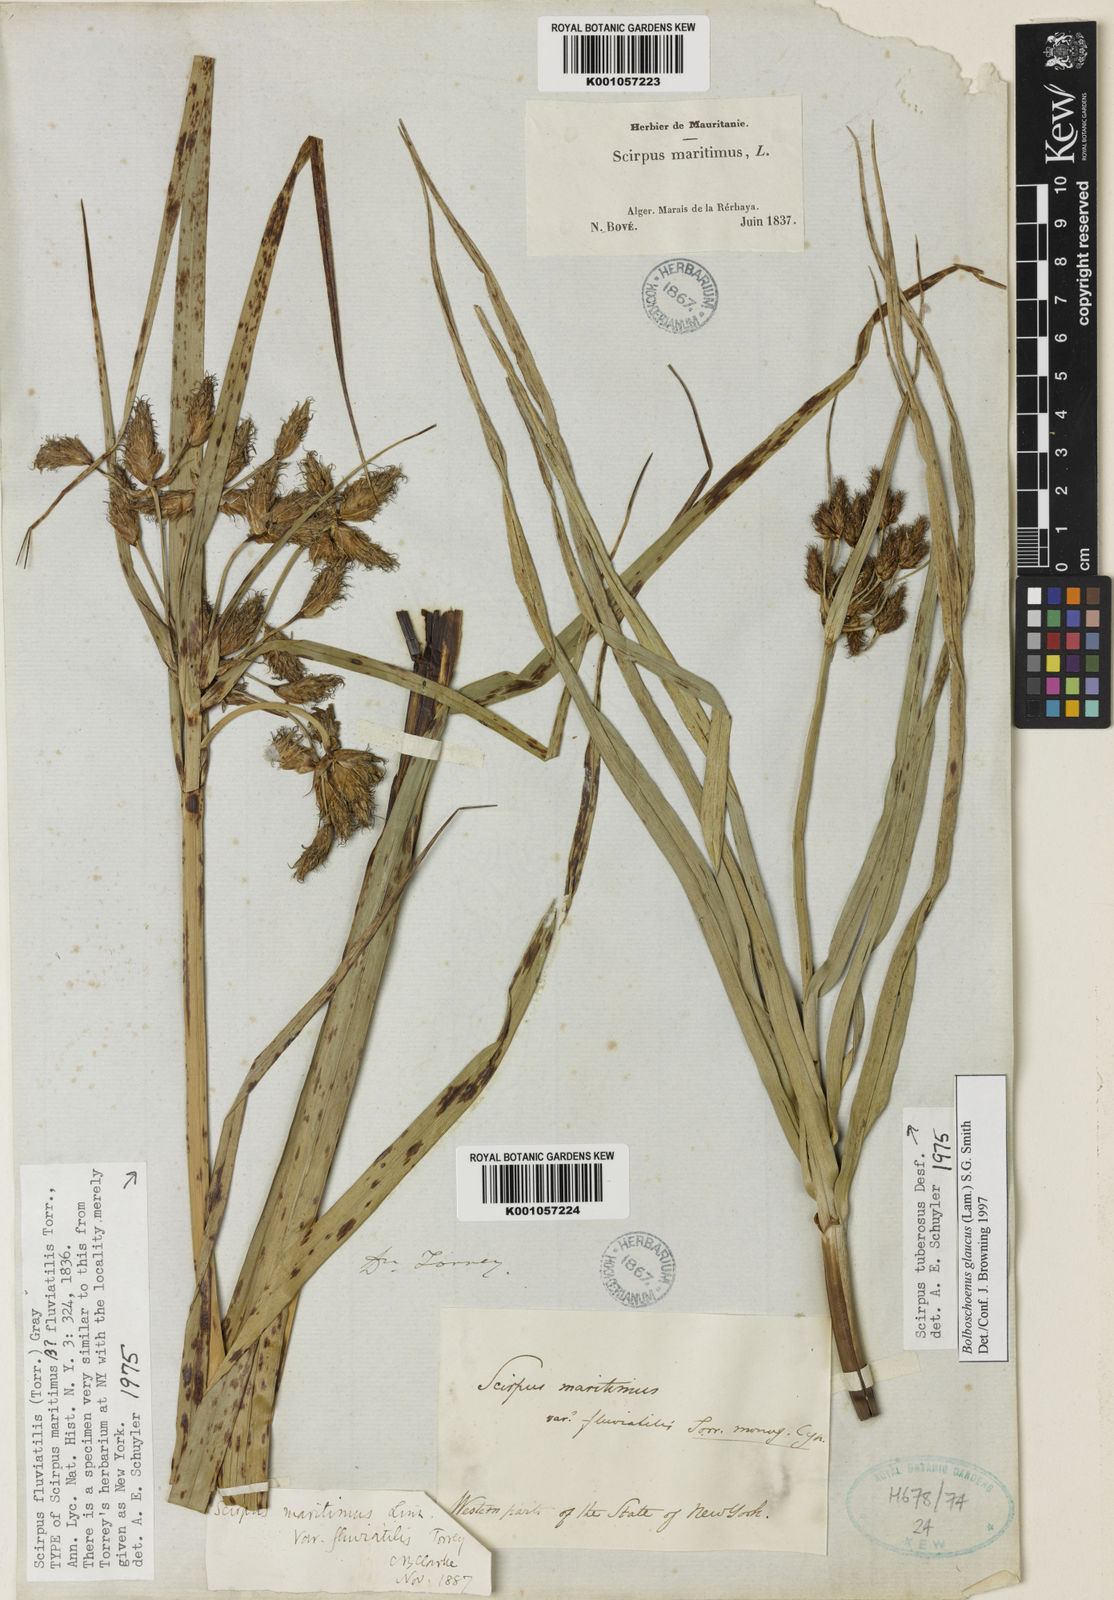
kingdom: Plantae
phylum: Tracheophyta
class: Liliopsida
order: Poales
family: Cyperaceae
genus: Bolboschoenus
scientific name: Bolboschoenus
